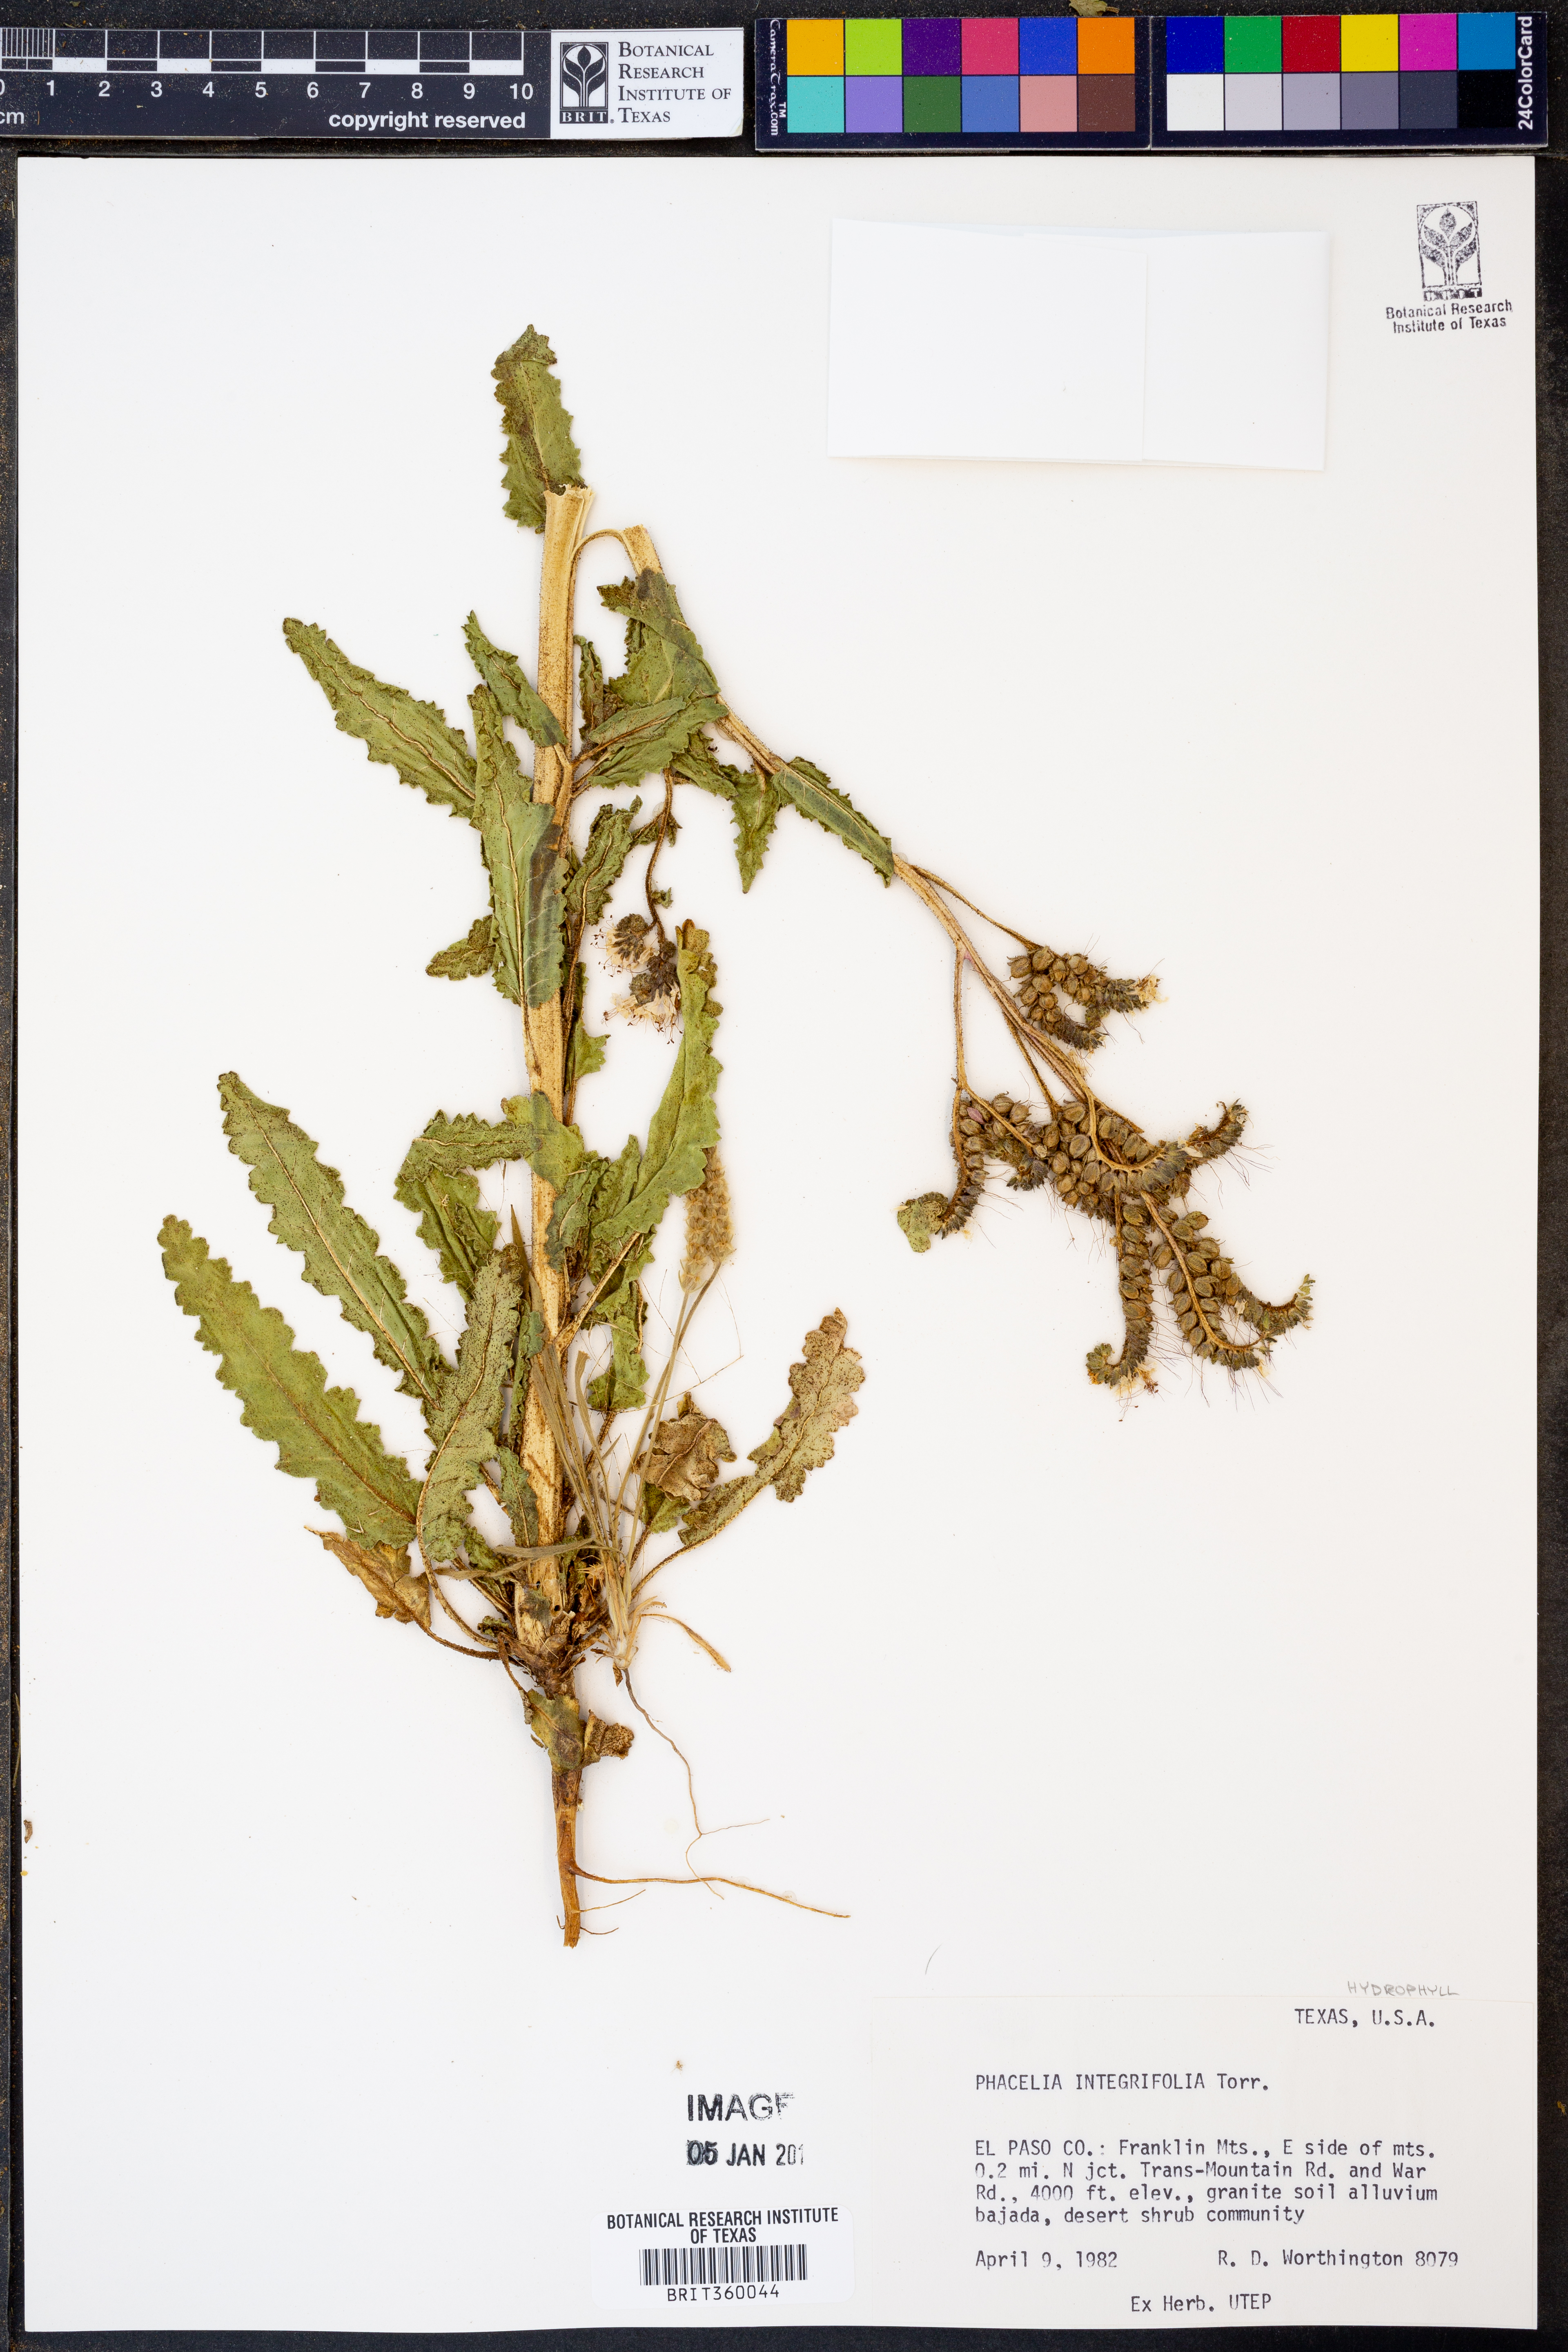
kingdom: Plantae
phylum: Tracheophyta
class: Magnoliopsida
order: Boraginales
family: Hydrophyllaceae
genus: Phacelia
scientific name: Phacelia integrifolia
